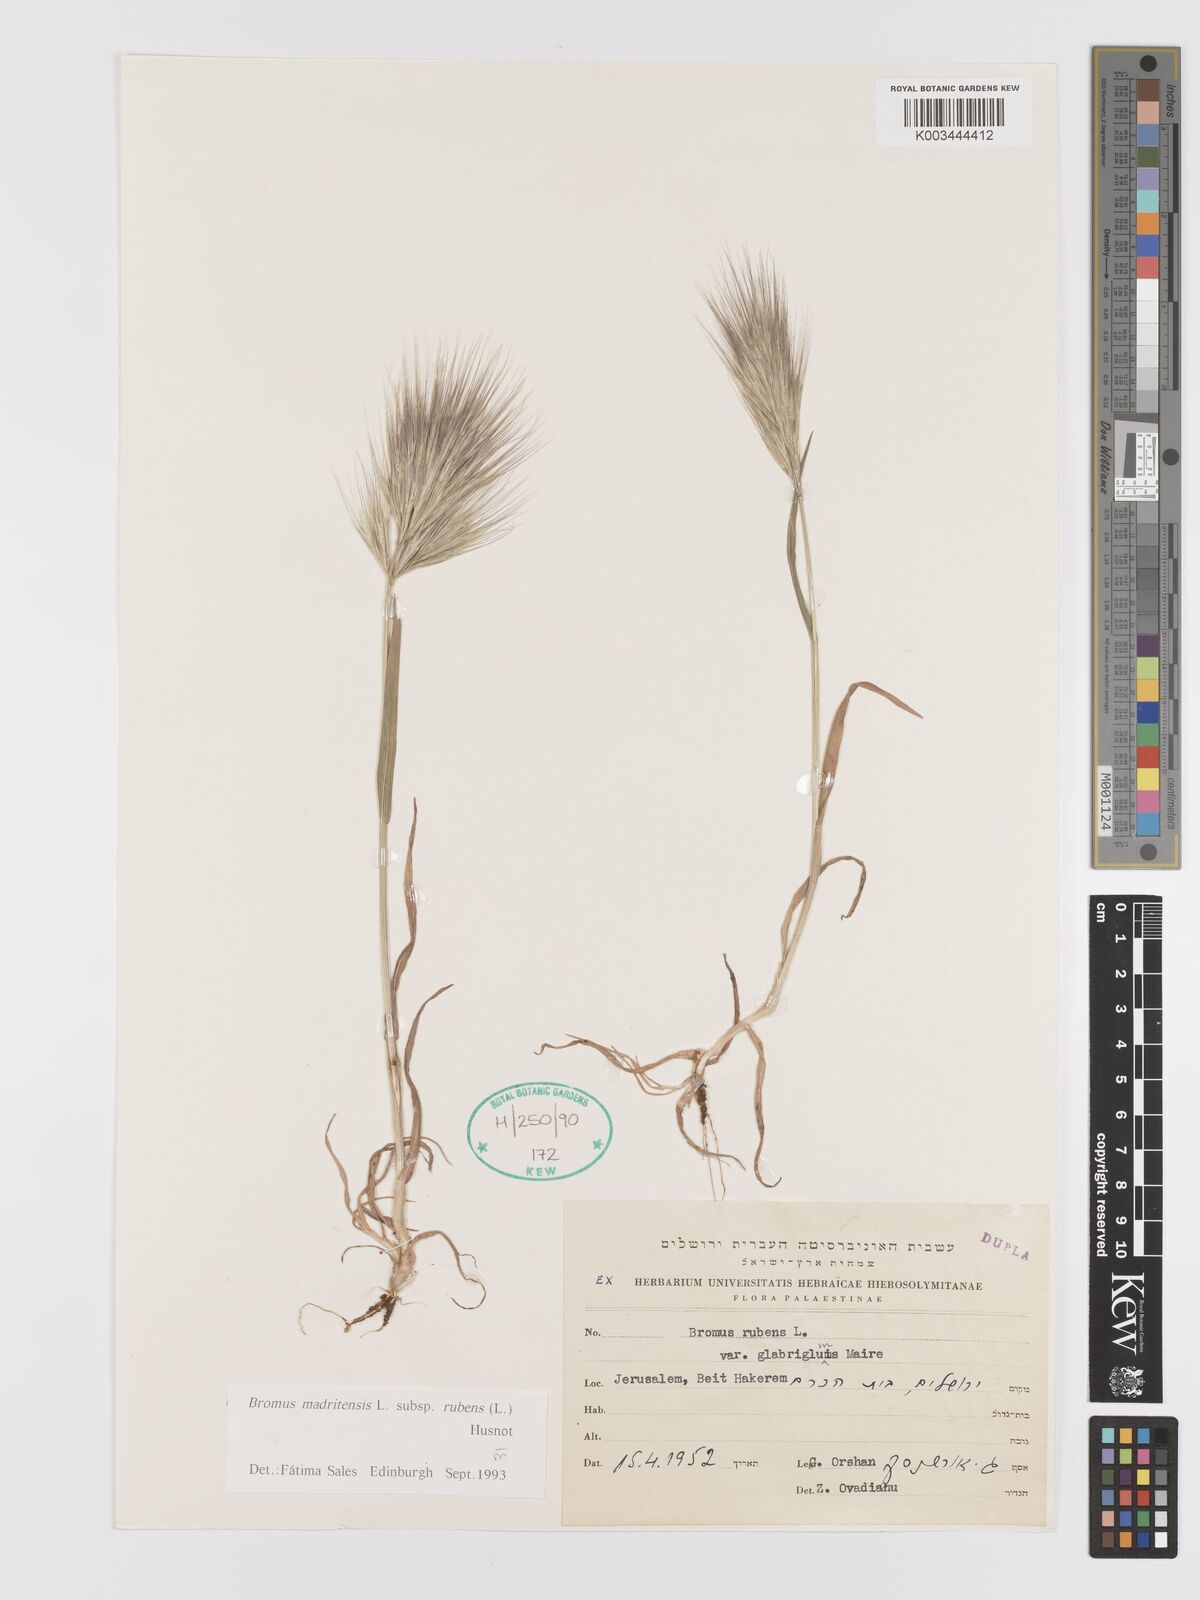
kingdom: Plantae
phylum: Tracheophyta
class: Liliopsida
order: Poales
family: Poaceae
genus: Bromus
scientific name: Bromus rubens
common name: Red brome
